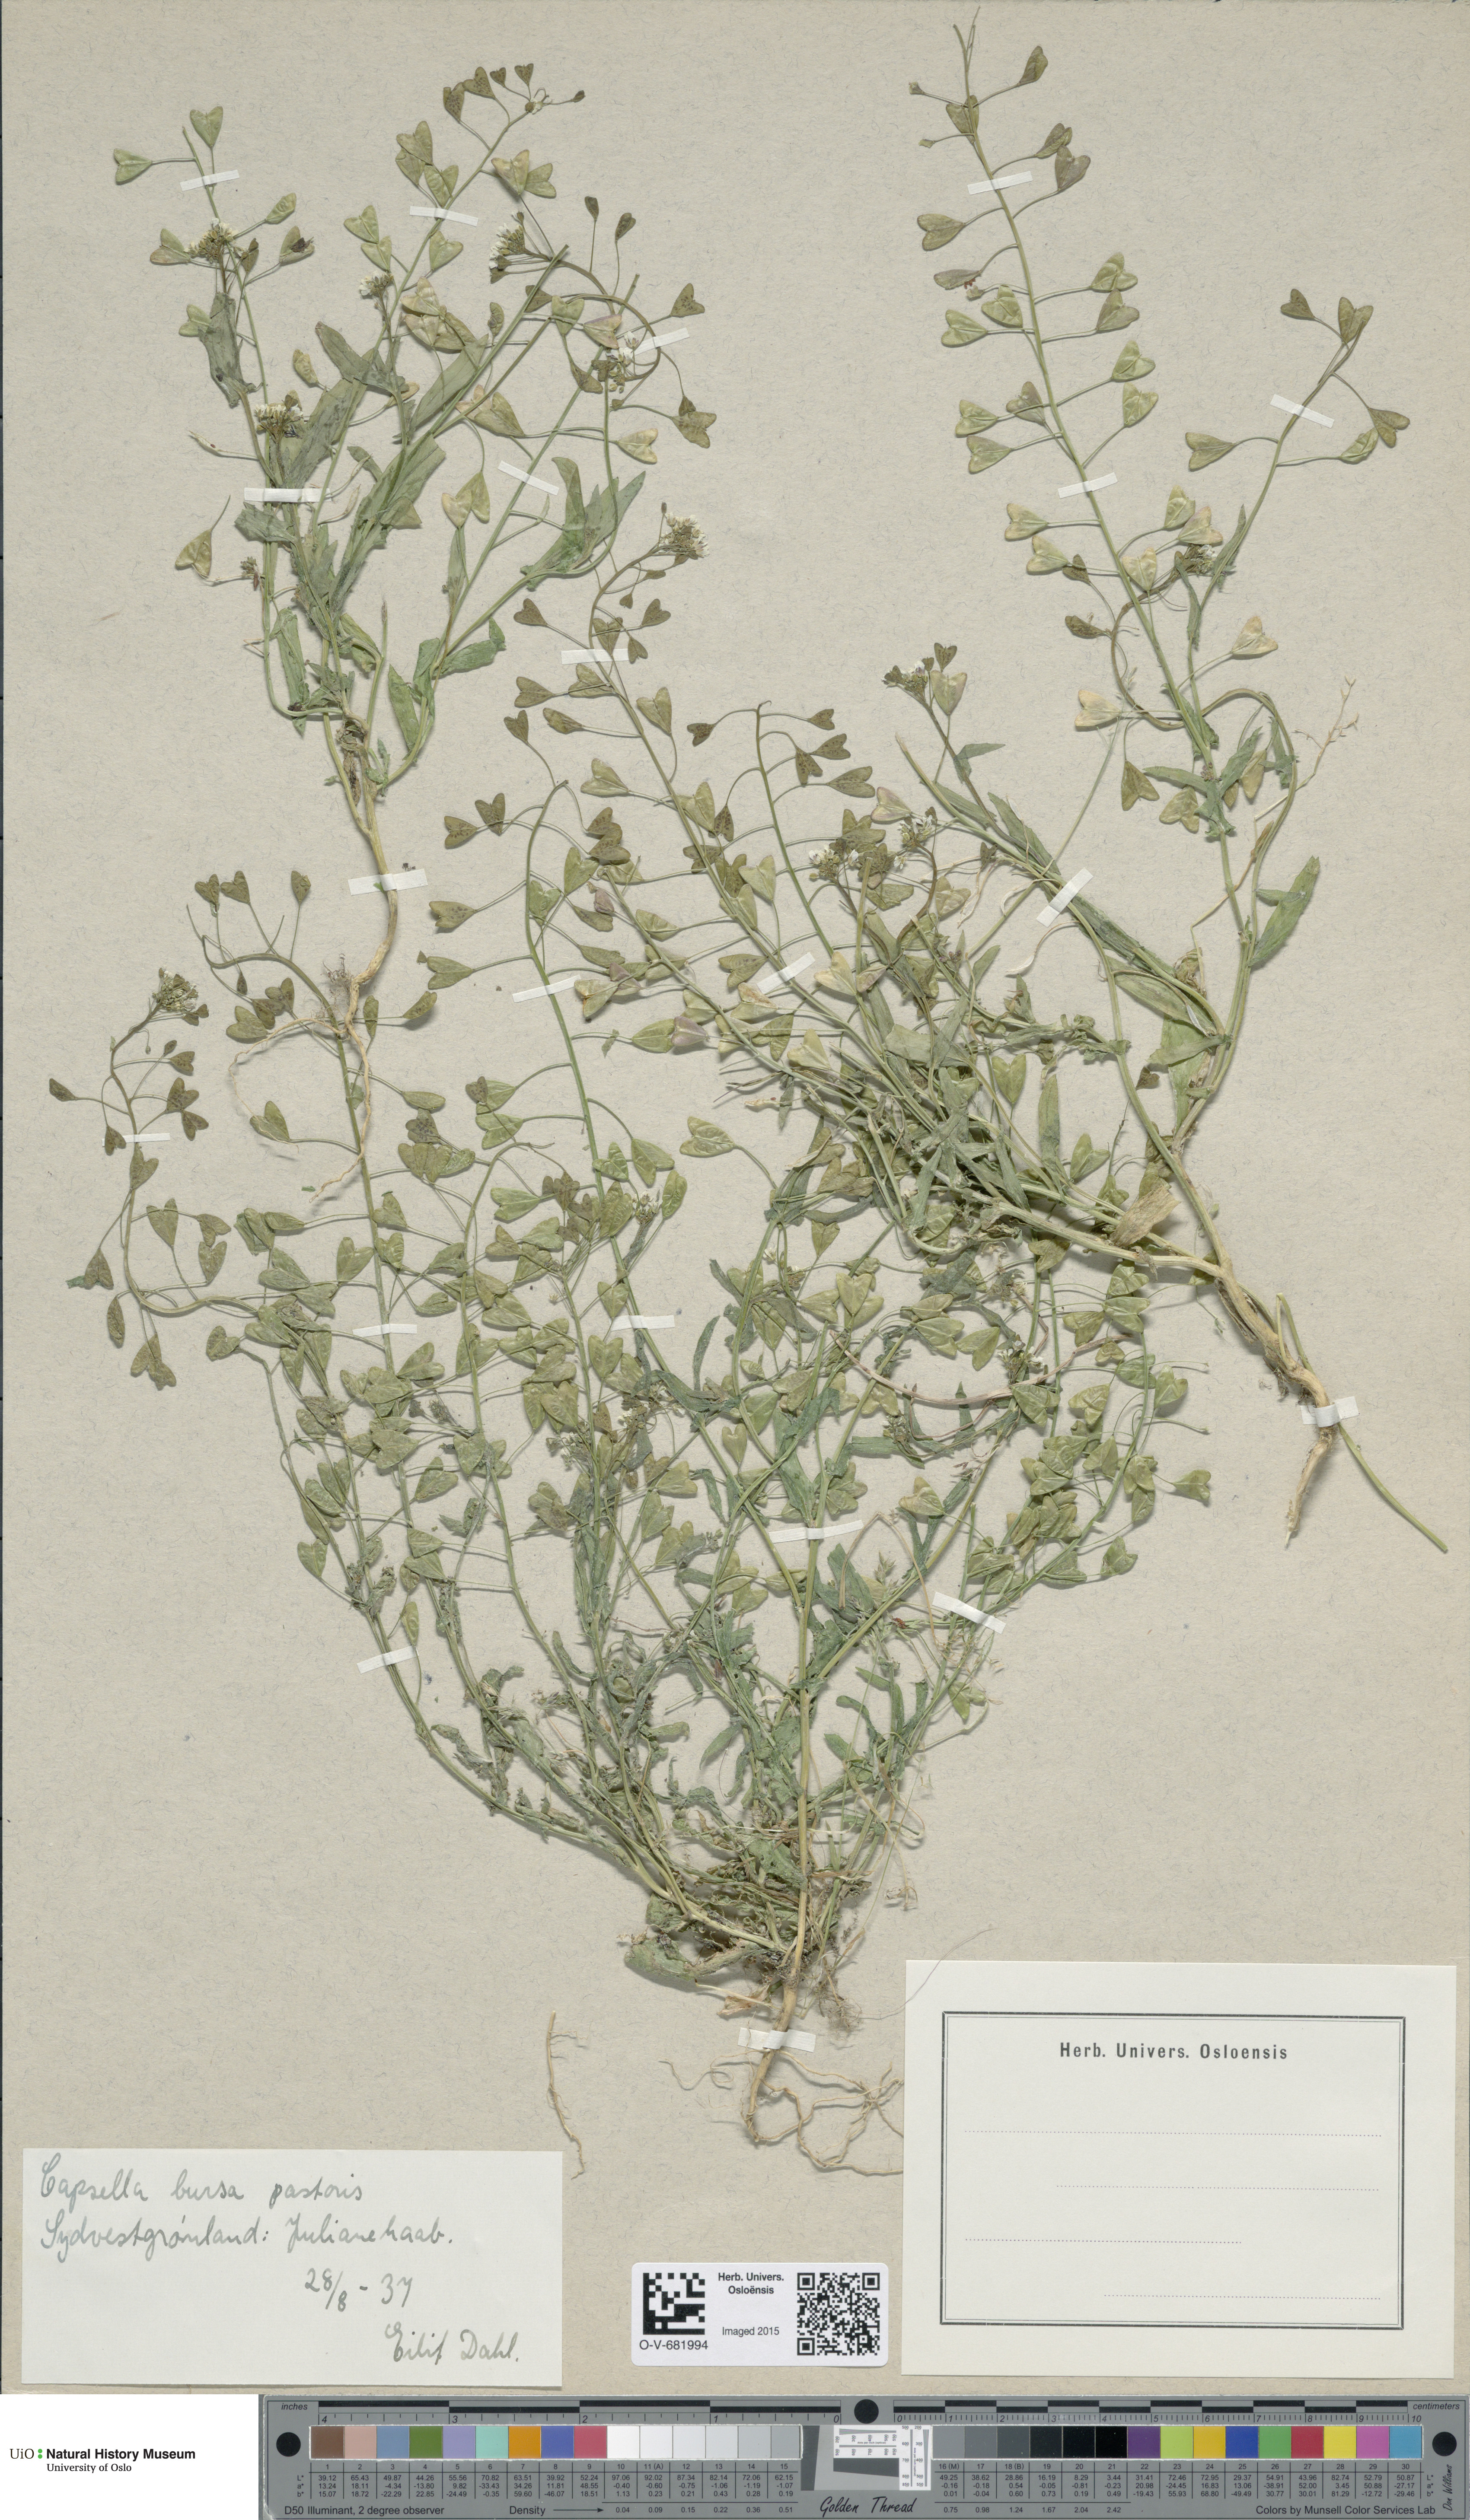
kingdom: Plantae
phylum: Tracheophyta
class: Magnoliopsida
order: Brassicales
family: Brassicaceae
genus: Capsella
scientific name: Capsella bursa-pastoris
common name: Shepherd's purse
